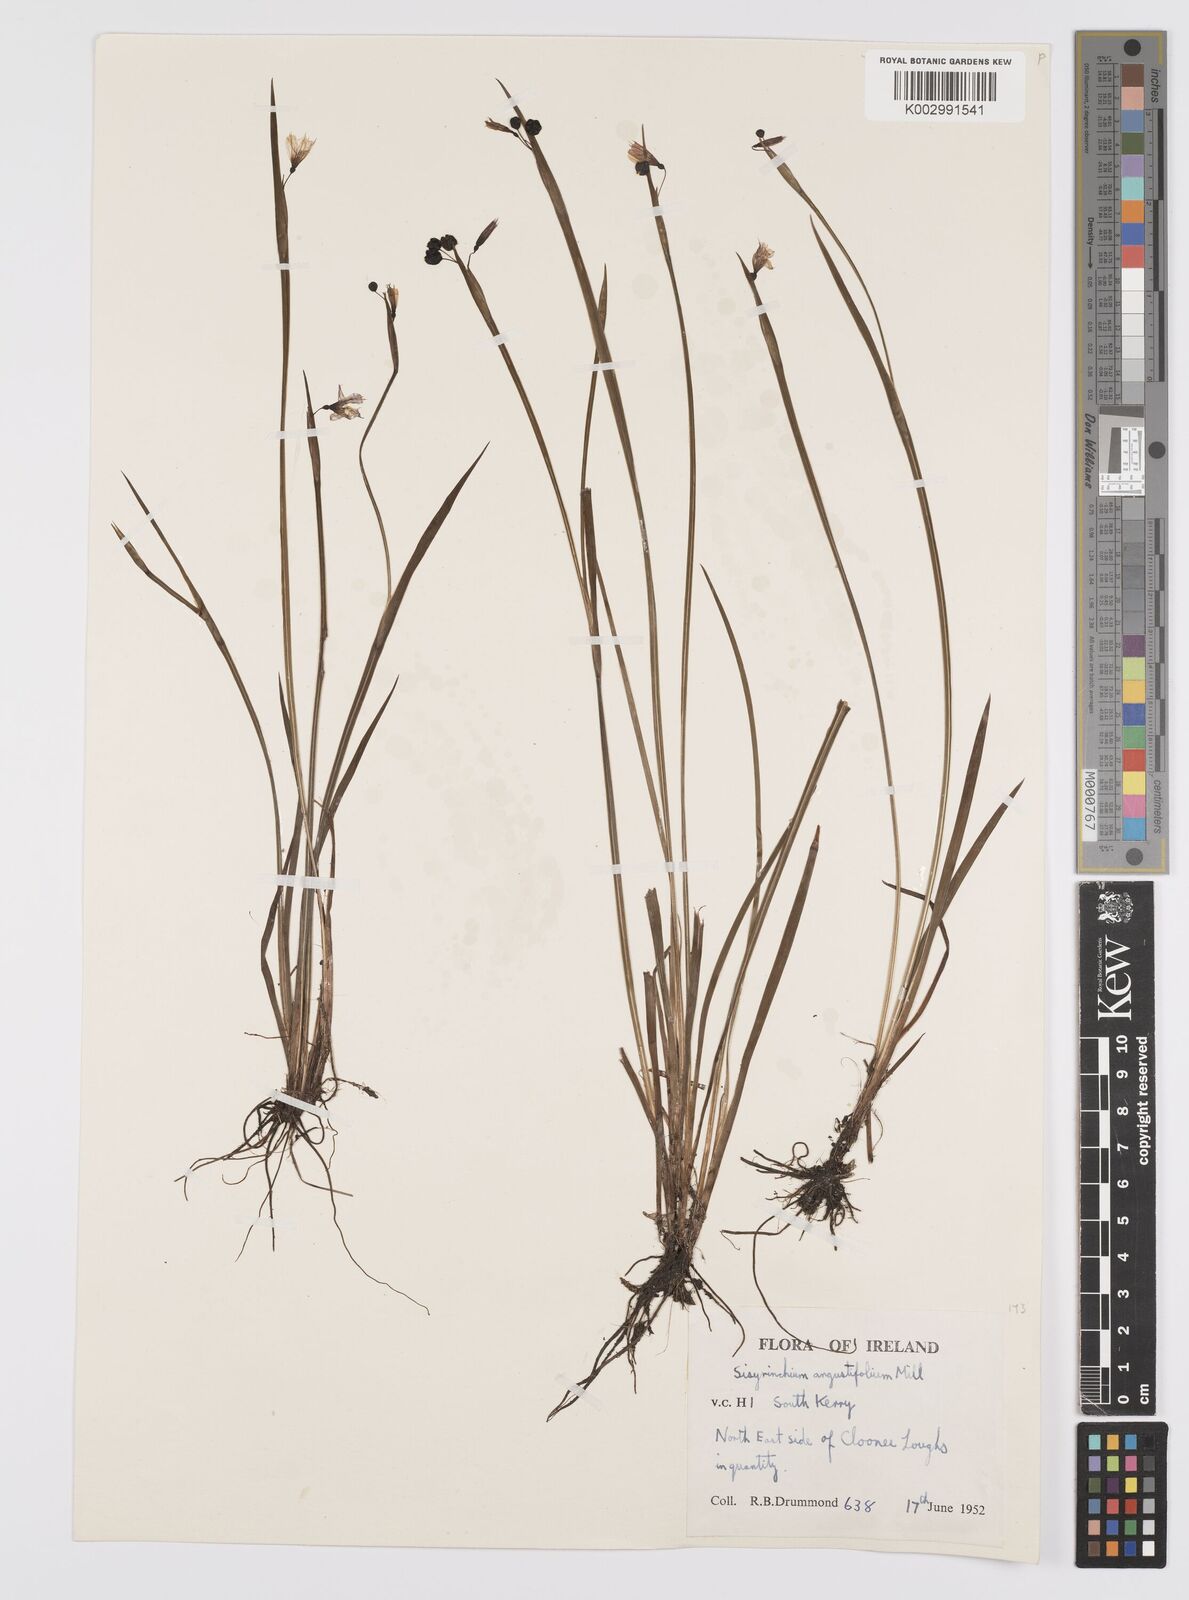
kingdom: Plantae
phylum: Tracheophyta
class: Liliopsida
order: Asparagales
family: Iridaceae
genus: Sisyrinchium
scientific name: Sisyrinchium angustifolium
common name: Narrow-leaf blue-eyed-grass
